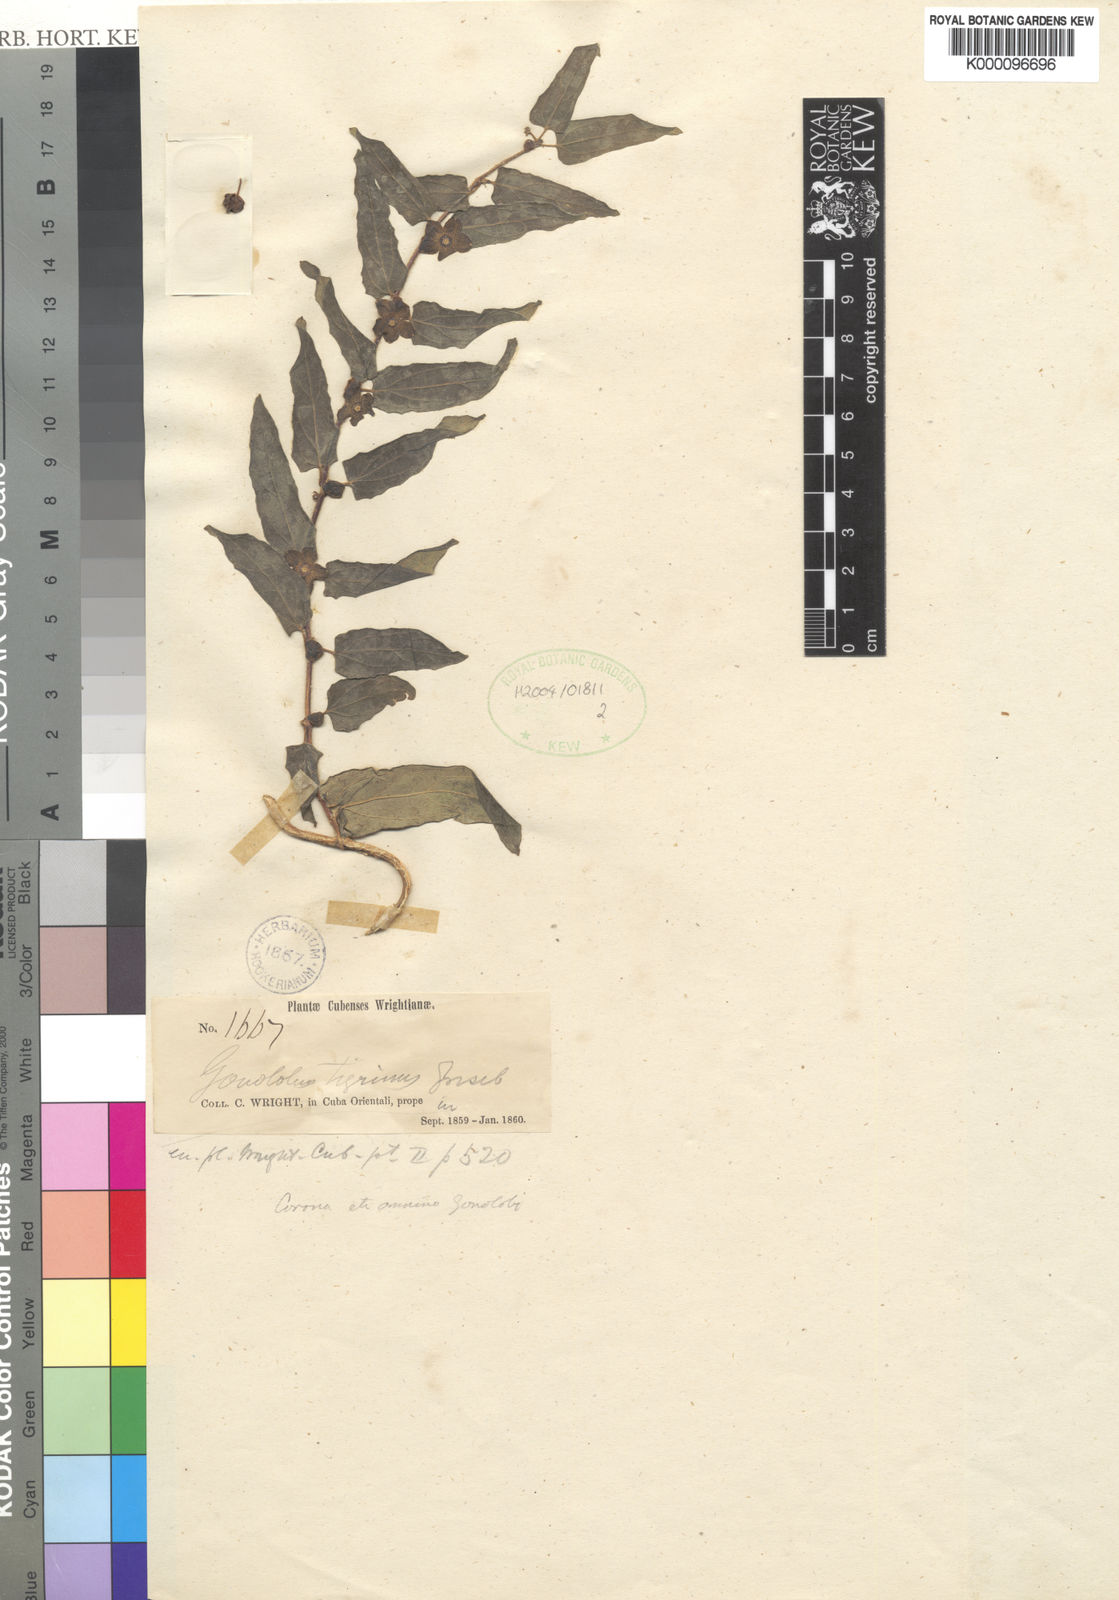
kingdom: Plantae
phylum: Tracheophyta
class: Magnoliopsida
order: Gentianales
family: Apocynaceae
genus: Matelea
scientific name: Matelea tigrina
